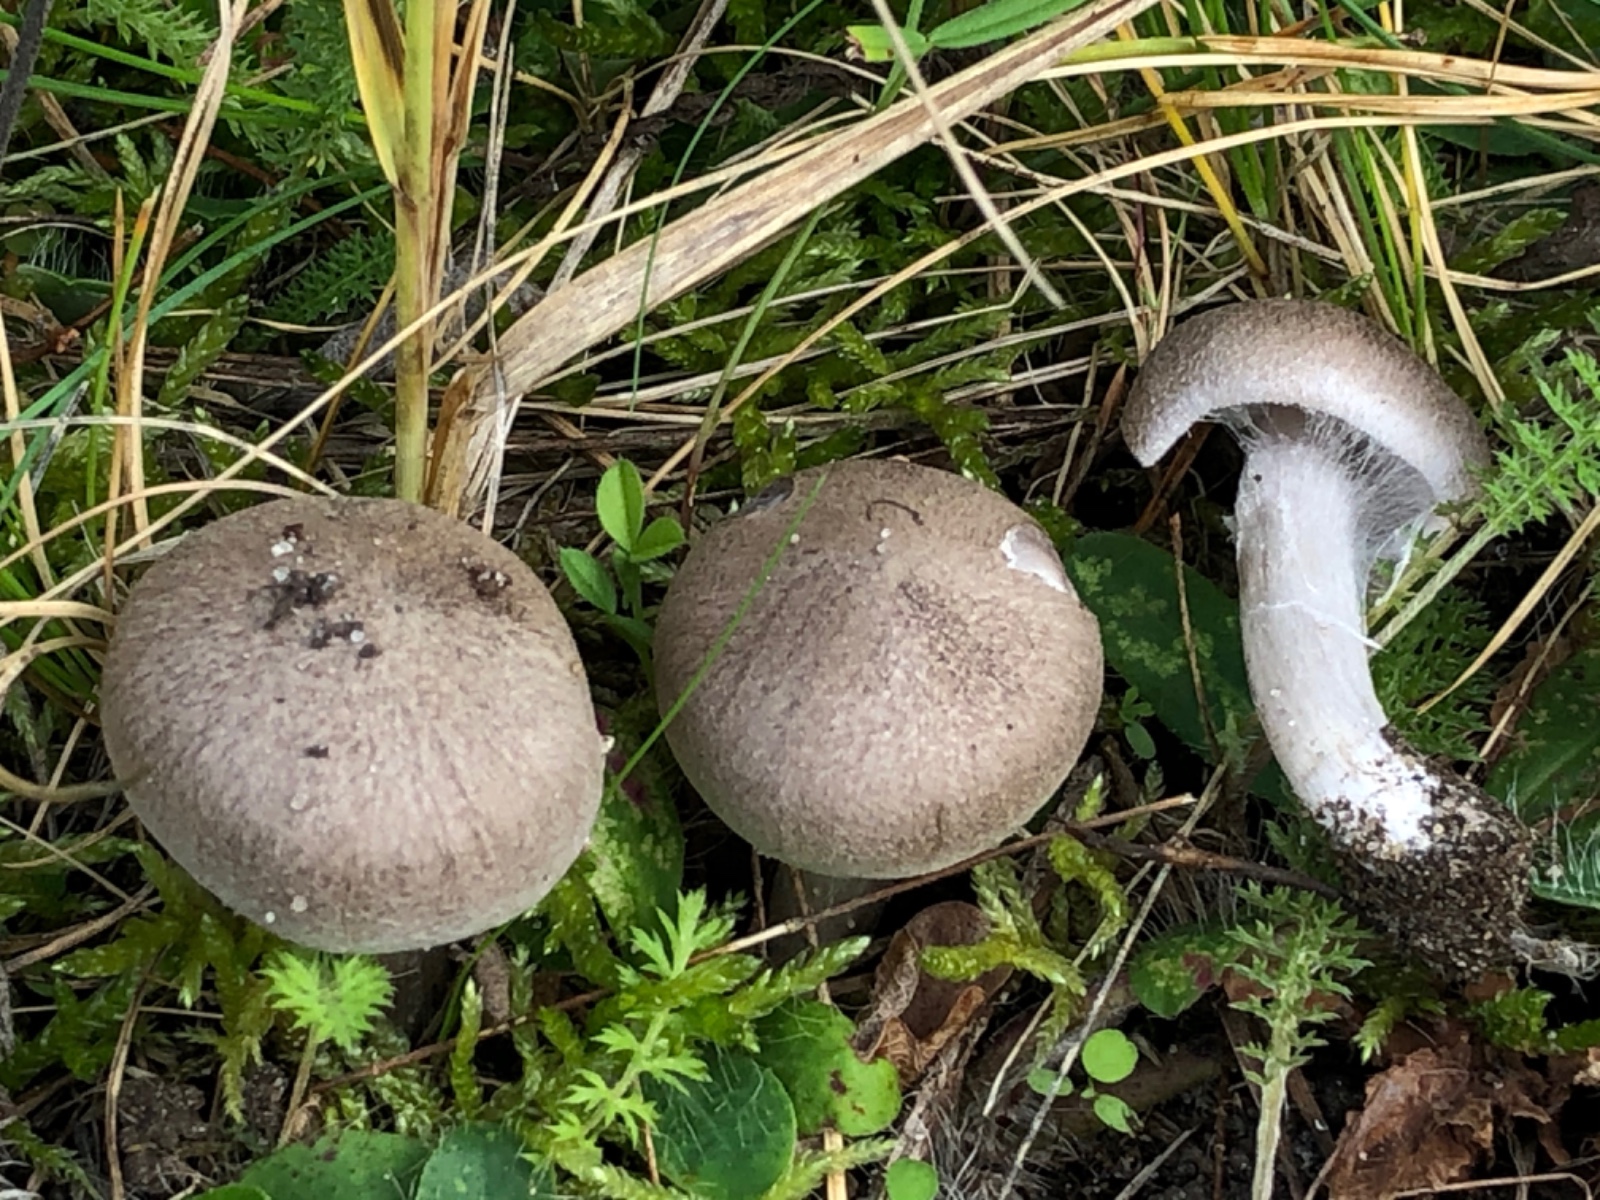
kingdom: Fungi
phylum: Basidiomycota
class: Agaricomycetes
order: Agaricales
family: Tricholomataceae
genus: Tricholoma
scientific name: Tricholoma argyraceum
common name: slør-ridderhat
